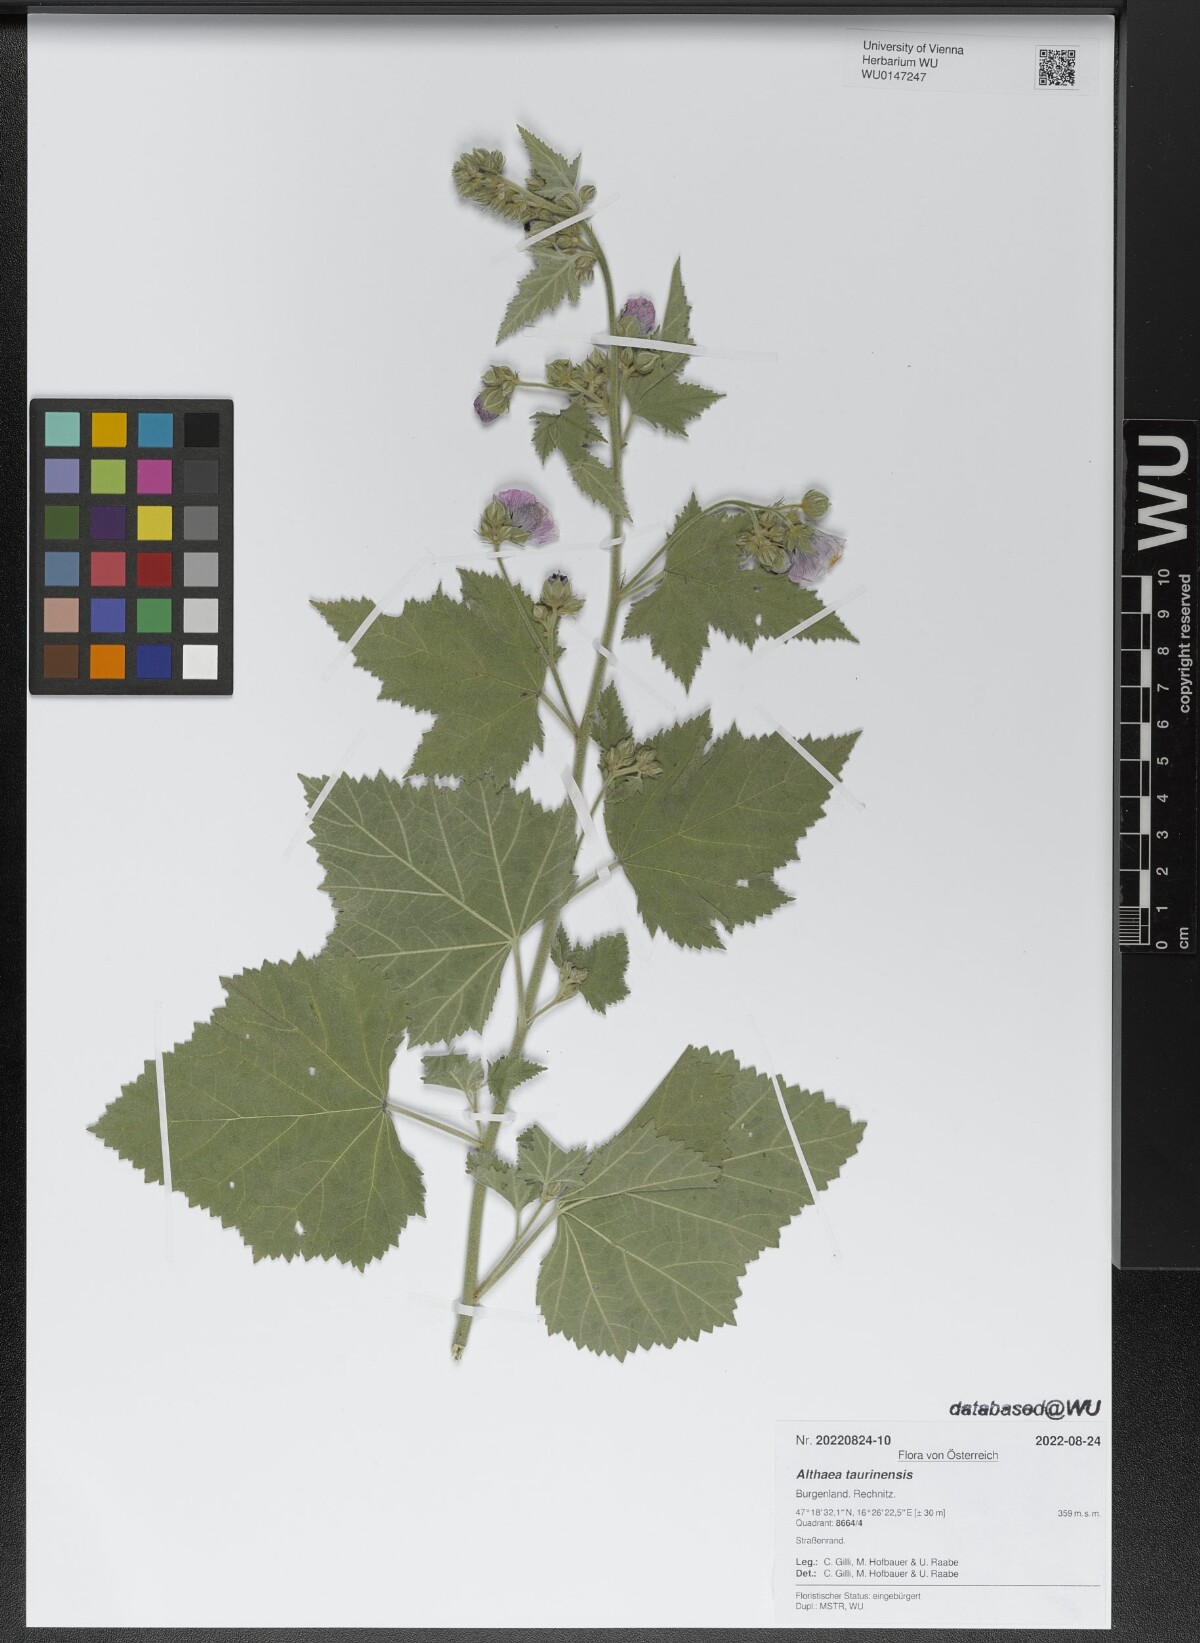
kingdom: Plantae
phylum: Tracheophyta
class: Magnoliopsida
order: Malvales
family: Malvaceae
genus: Althaea
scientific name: Althaea taurinensis
